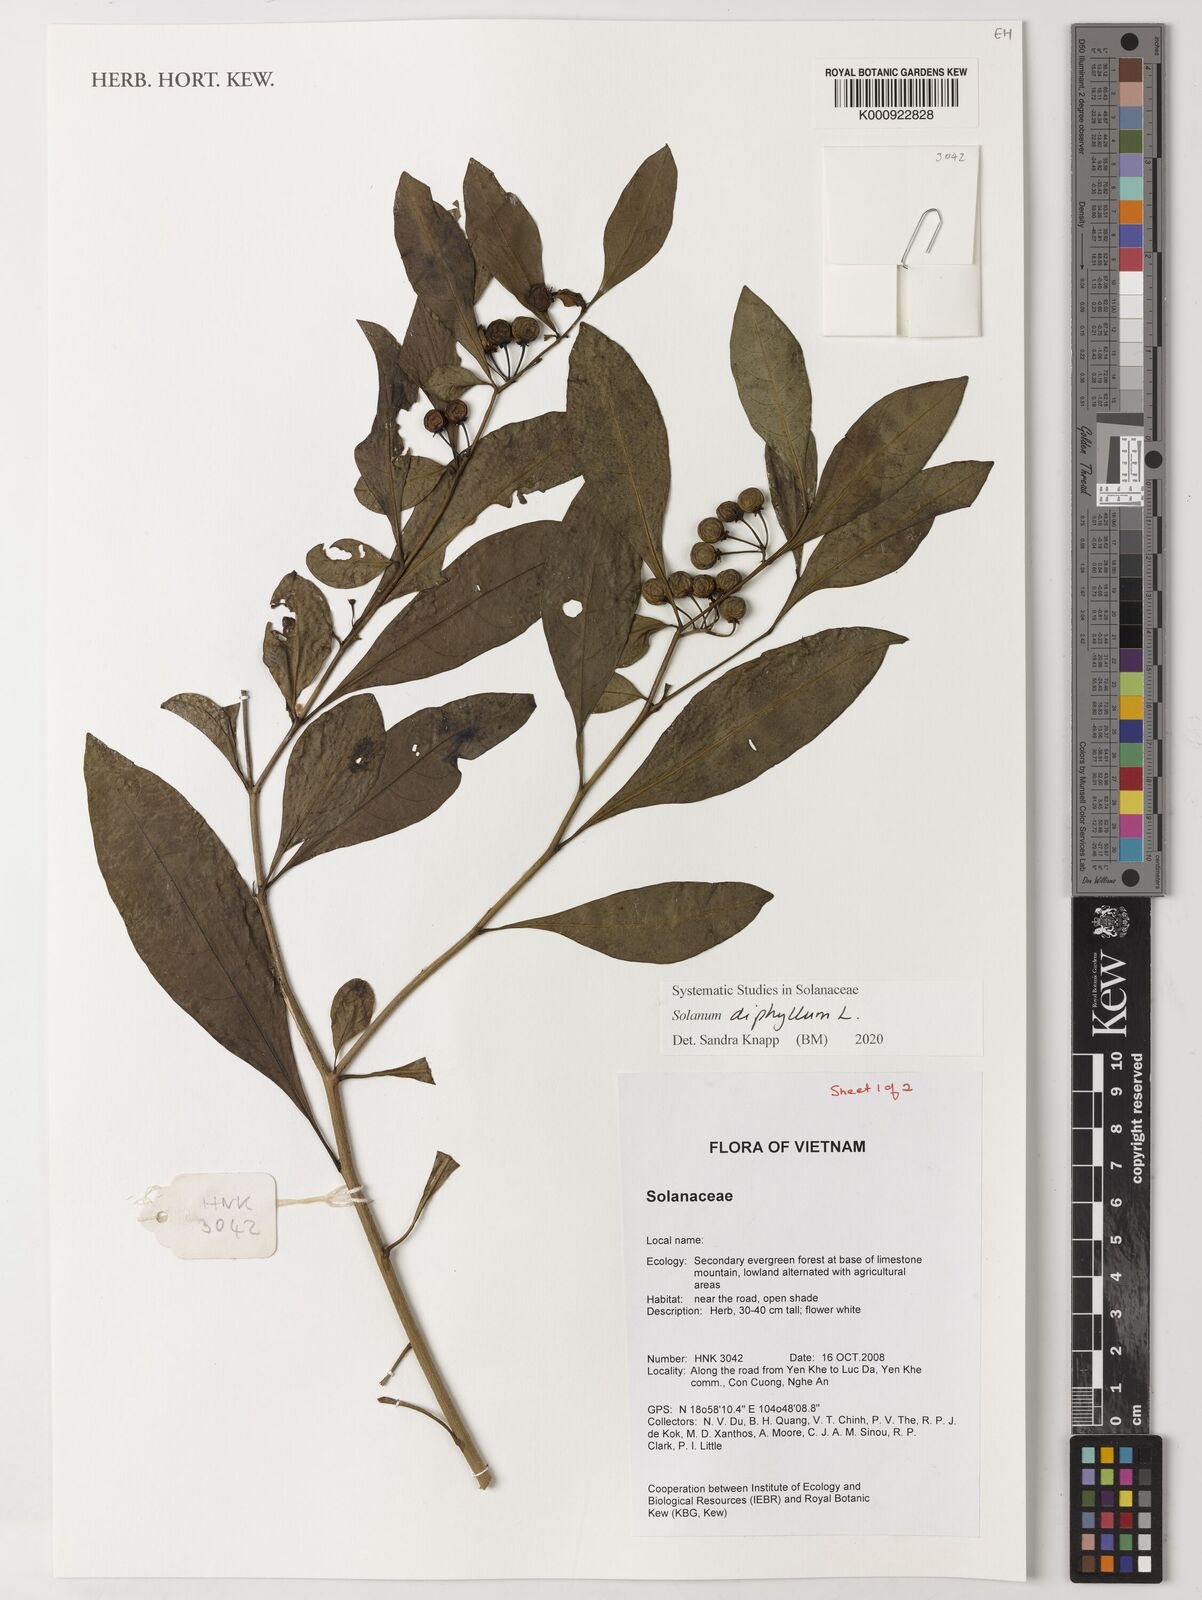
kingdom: Plantae
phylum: Tracheophyta
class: Magnoliopsida
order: Solanales
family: Solanaceae
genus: Solanum
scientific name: Solanum diphyllum
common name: Twoleaf nightshade
